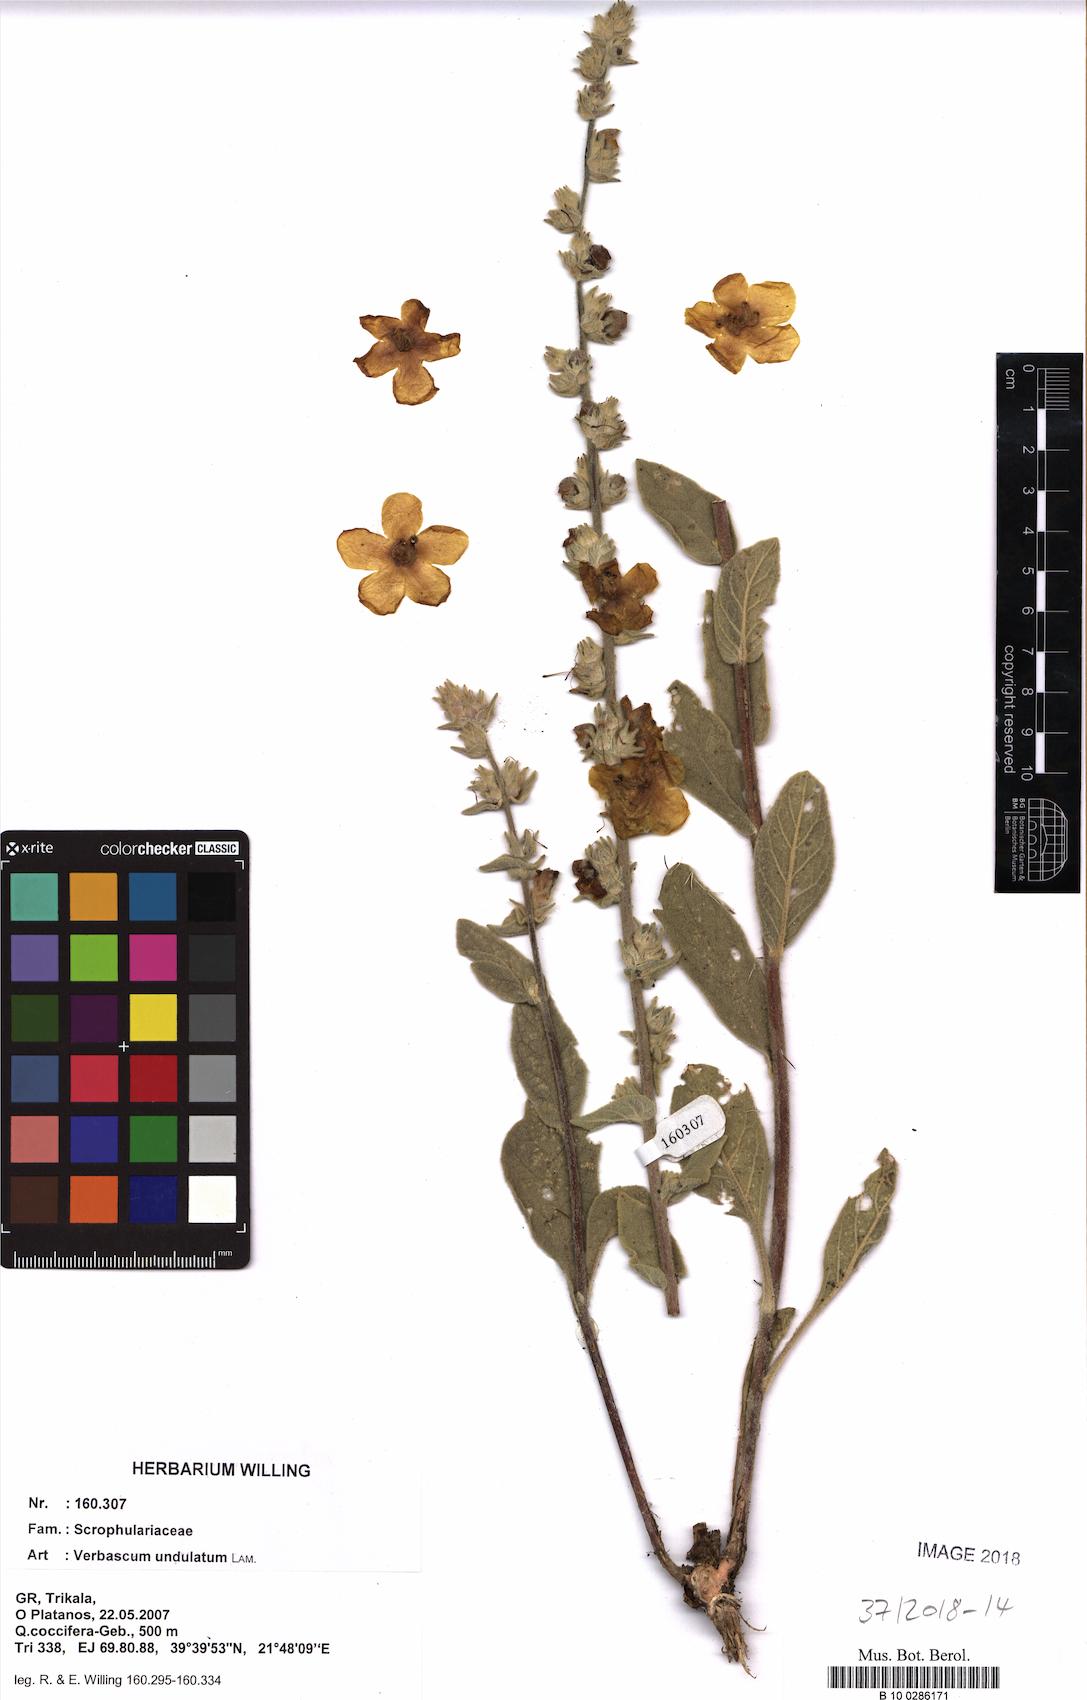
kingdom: Plantae
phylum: Tracheophyta
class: Magnoliopsida
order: Lamiales
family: Scrophulariaceae
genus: Verbascum
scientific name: Verbascum undulatum
